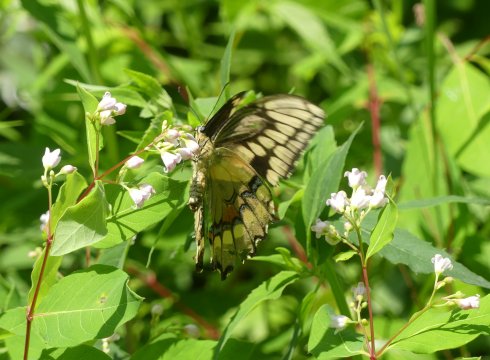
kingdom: Animalia
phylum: Arthropoda
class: Insecta
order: Lepidoptera
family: Papilionidae
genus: Papilio
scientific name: Papilio cresphontes
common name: Eastern Giant Swallowtail
